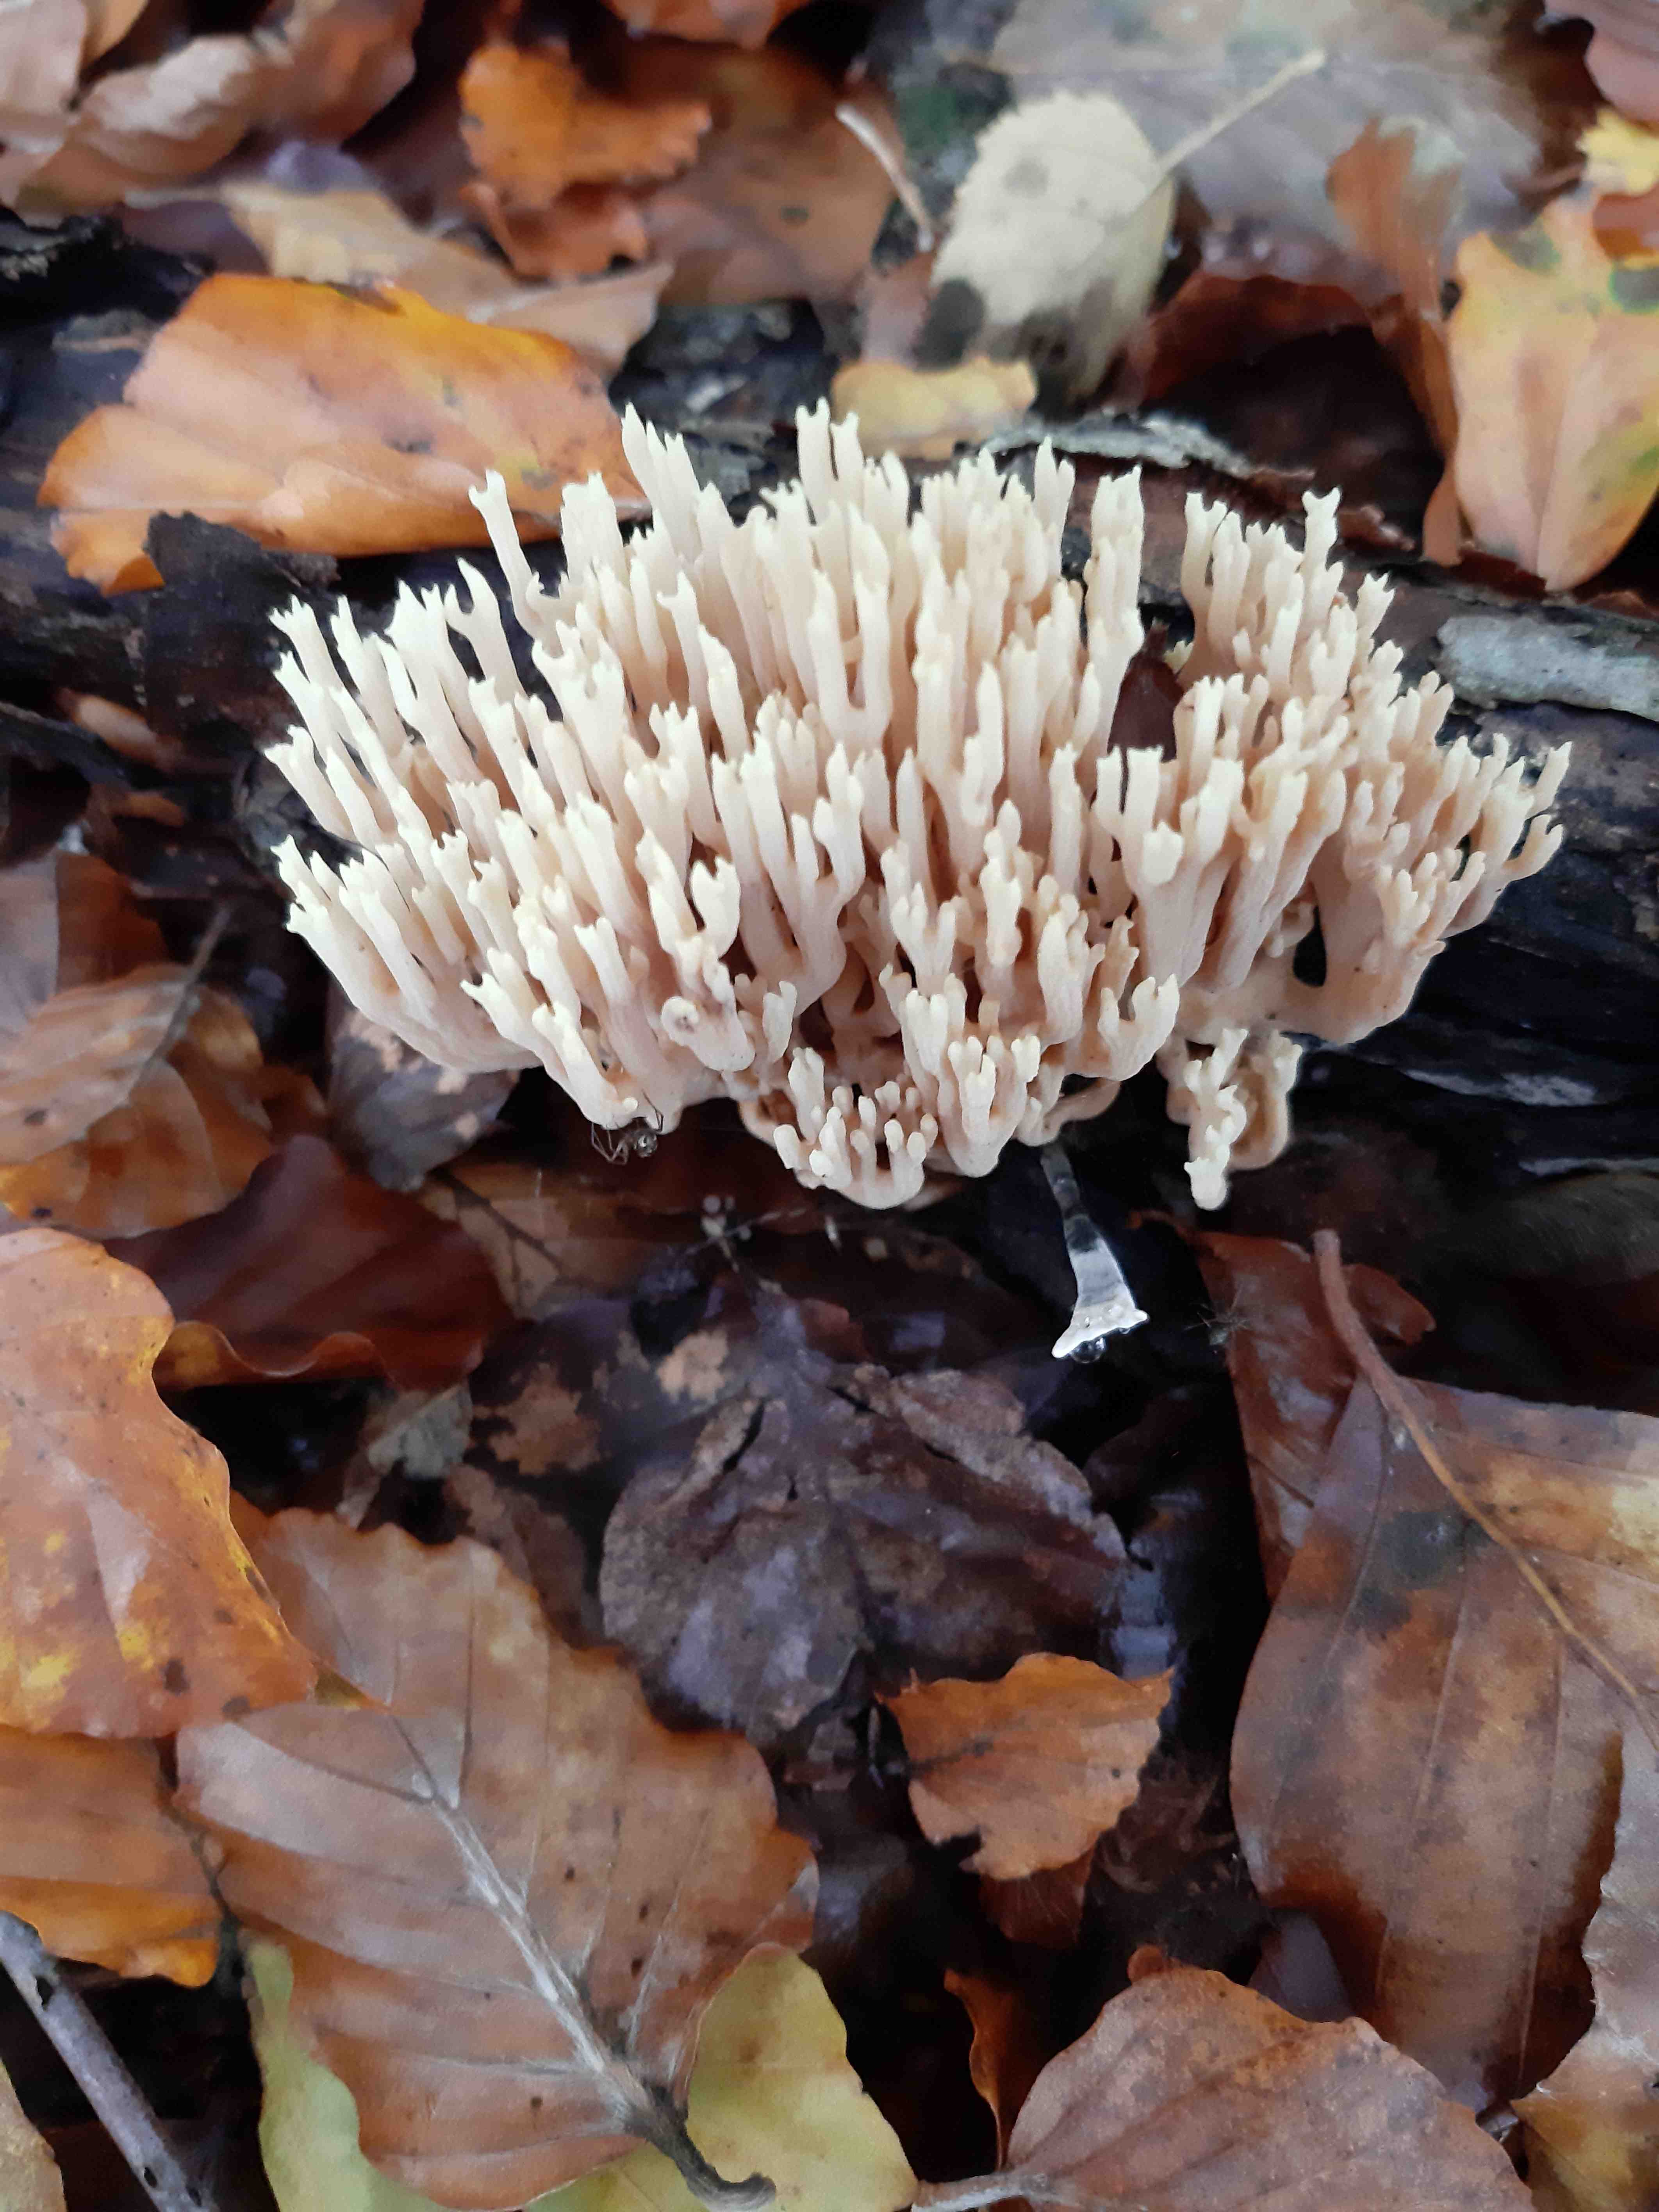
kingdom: Fungi
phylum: Basidiomycota
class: Agaricomycetes
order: Gomphales
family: Gomphaceae
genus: Ramaria
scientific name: Ramaria stricta
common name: rank koralsvamp
